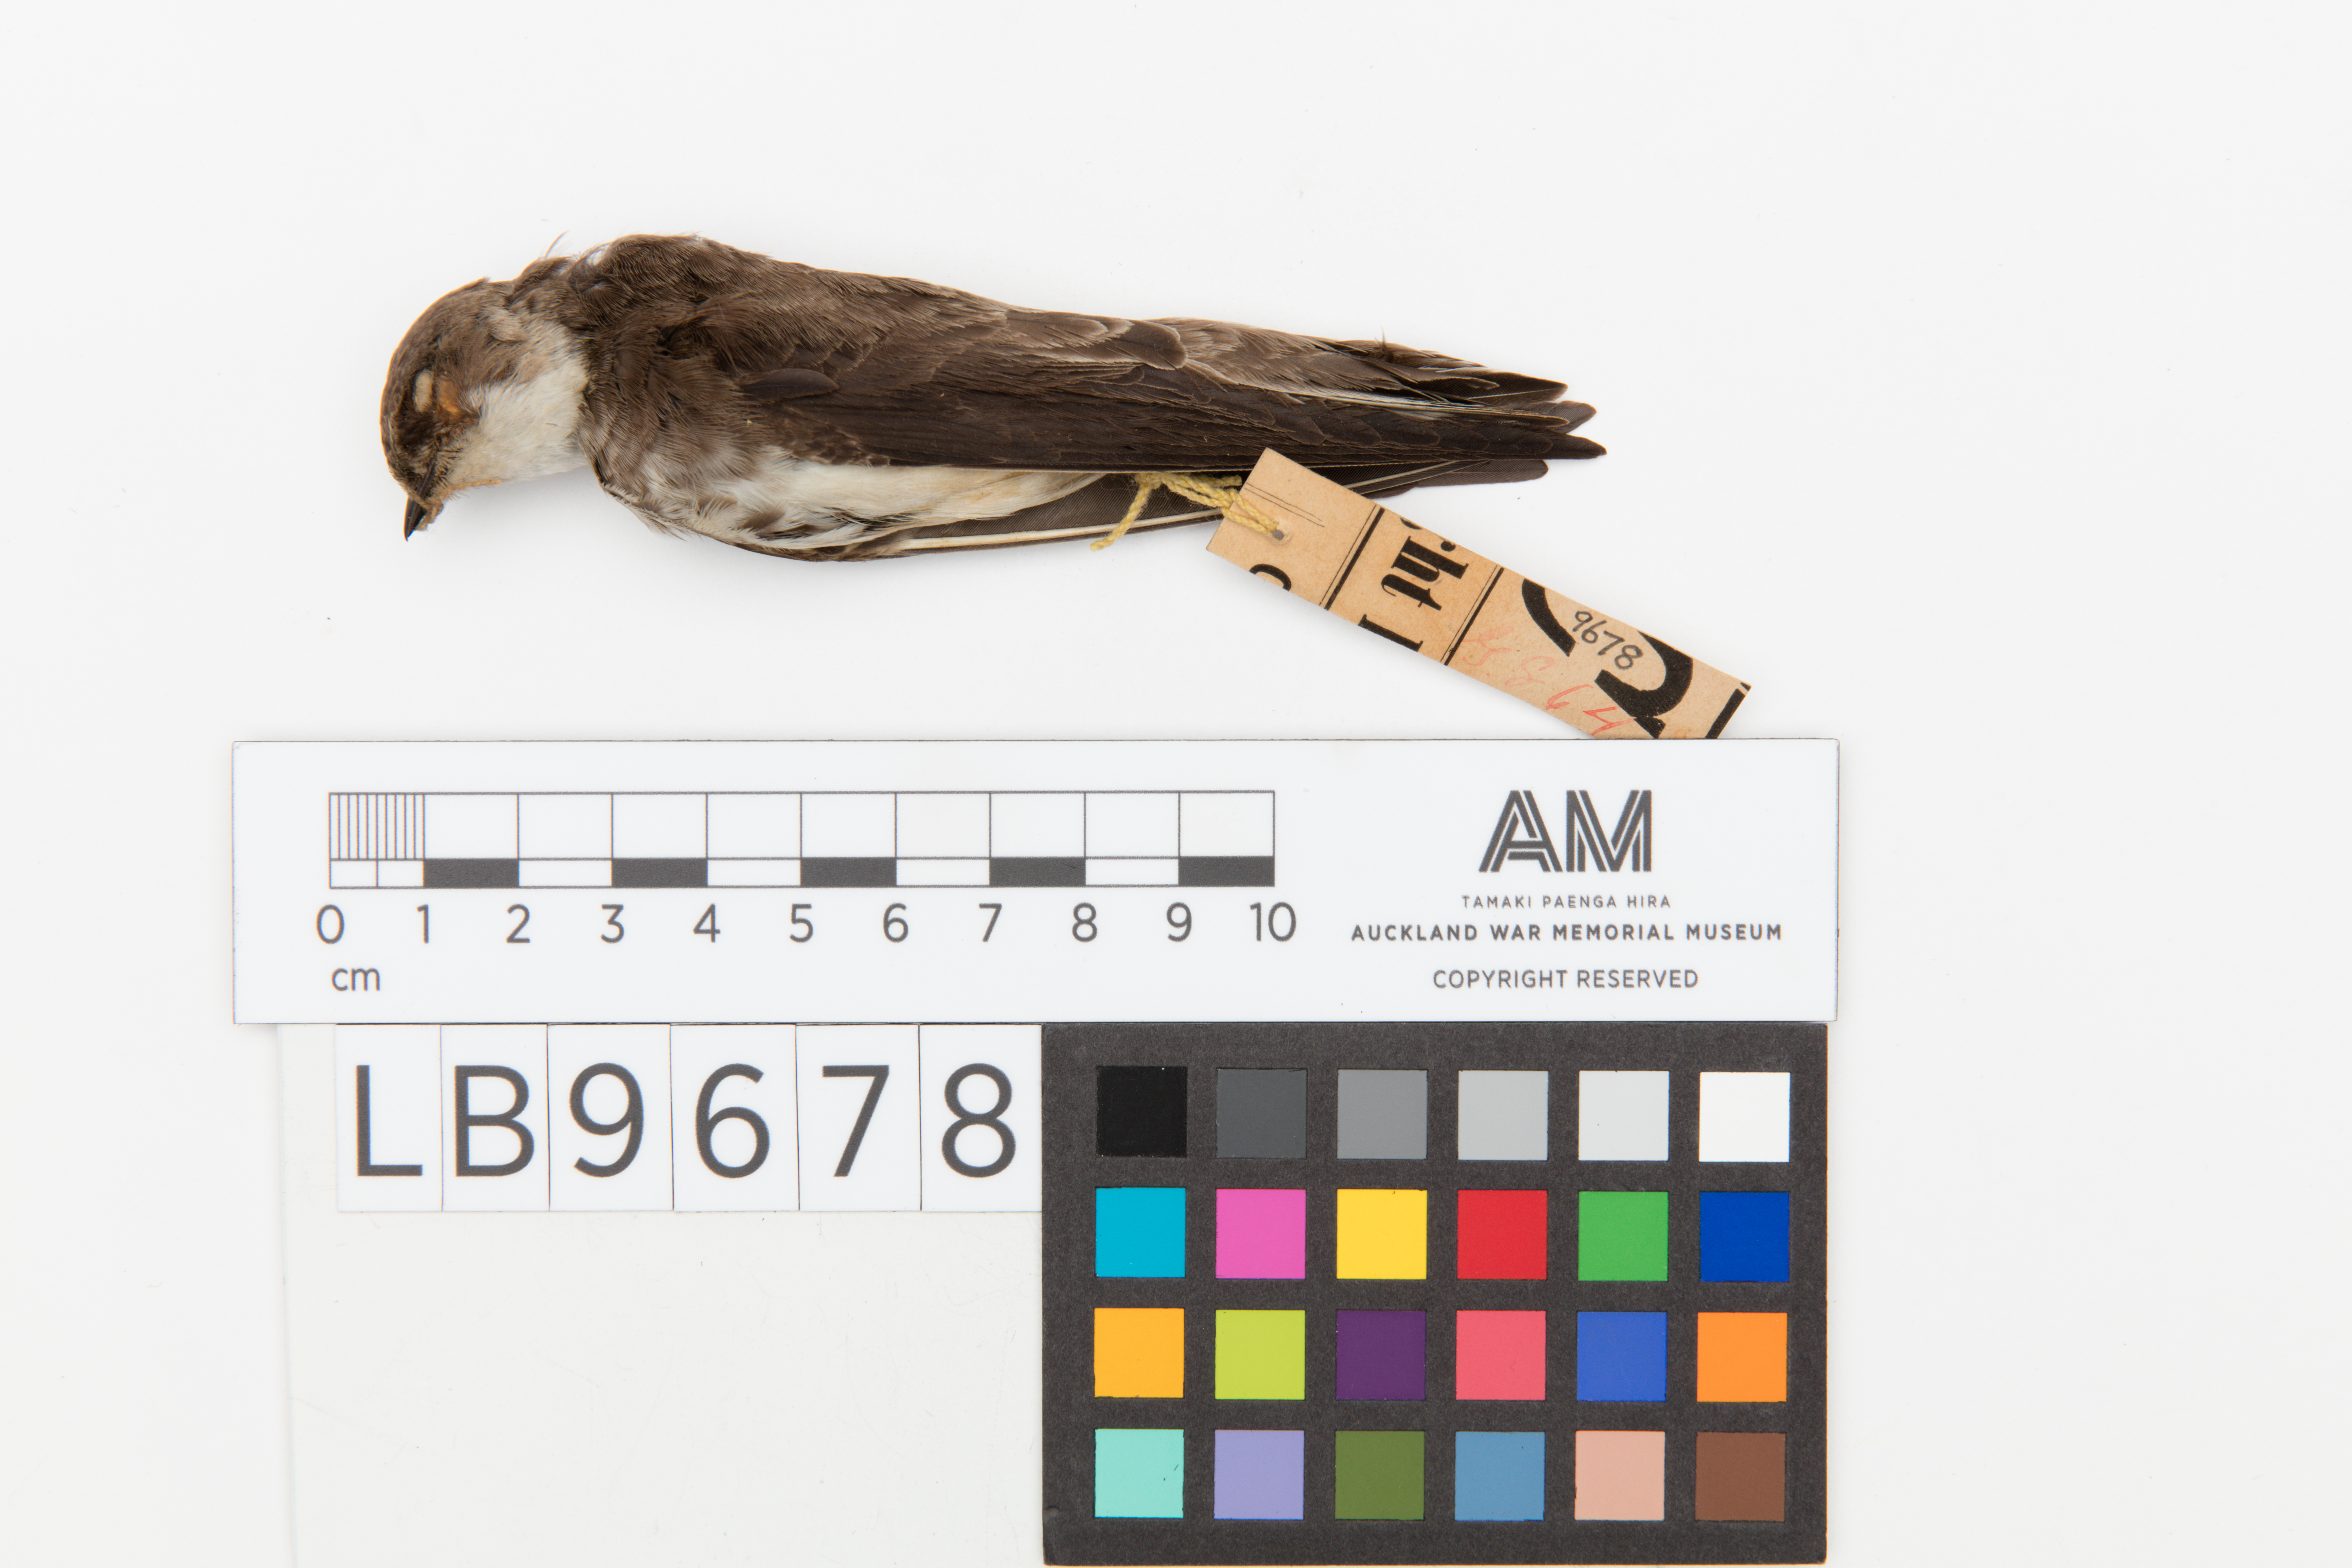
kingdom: Animalia
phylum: Chordata
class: Aves
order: Passeriformes
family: Hirundinidae
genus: Riparia
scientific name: Riparia riparia
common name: Sand martin
